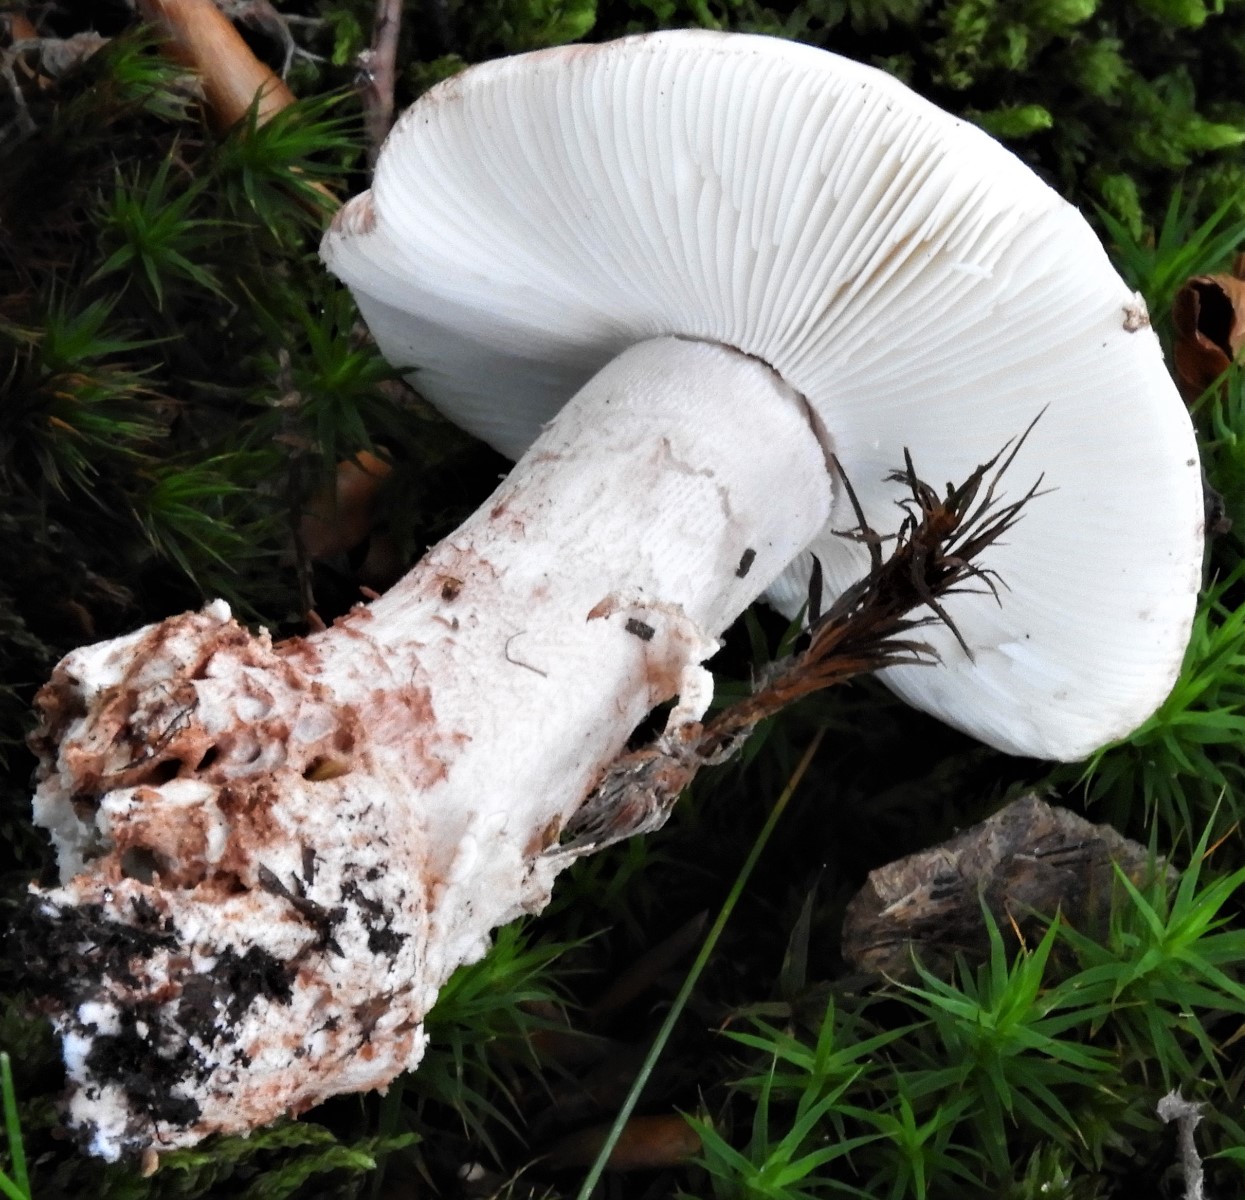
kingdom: Fungi
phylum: Basidiomycota
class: Agaricomycetes
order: Agaricales
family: Amanitaceae
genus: Amanita
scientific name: Amanita rubescens
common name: rødmende fluesvamp
